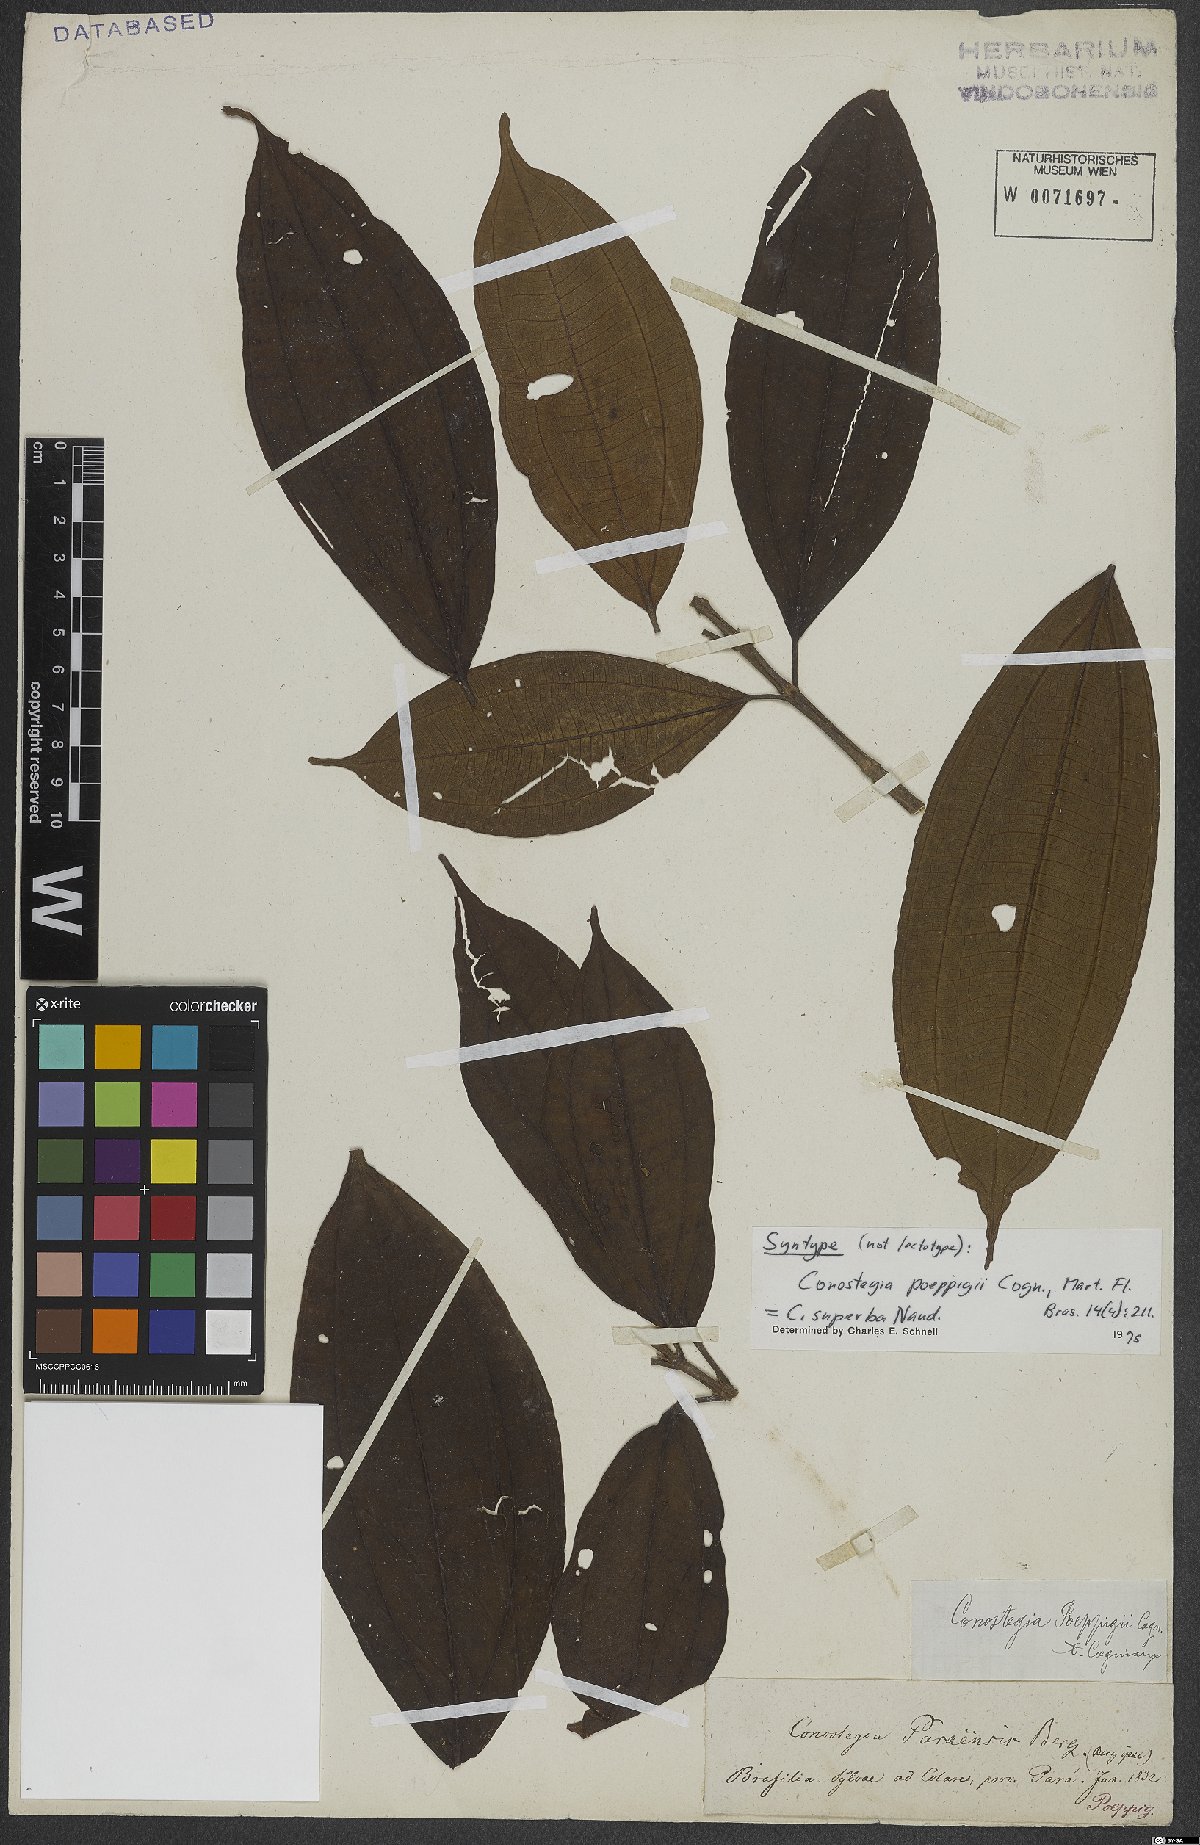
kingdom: Plantae
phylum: Tracheophyta
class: Magnoliopsida
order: Myrtales
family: Melastomataceae
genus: Miconia
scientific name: Miconia baillonii
